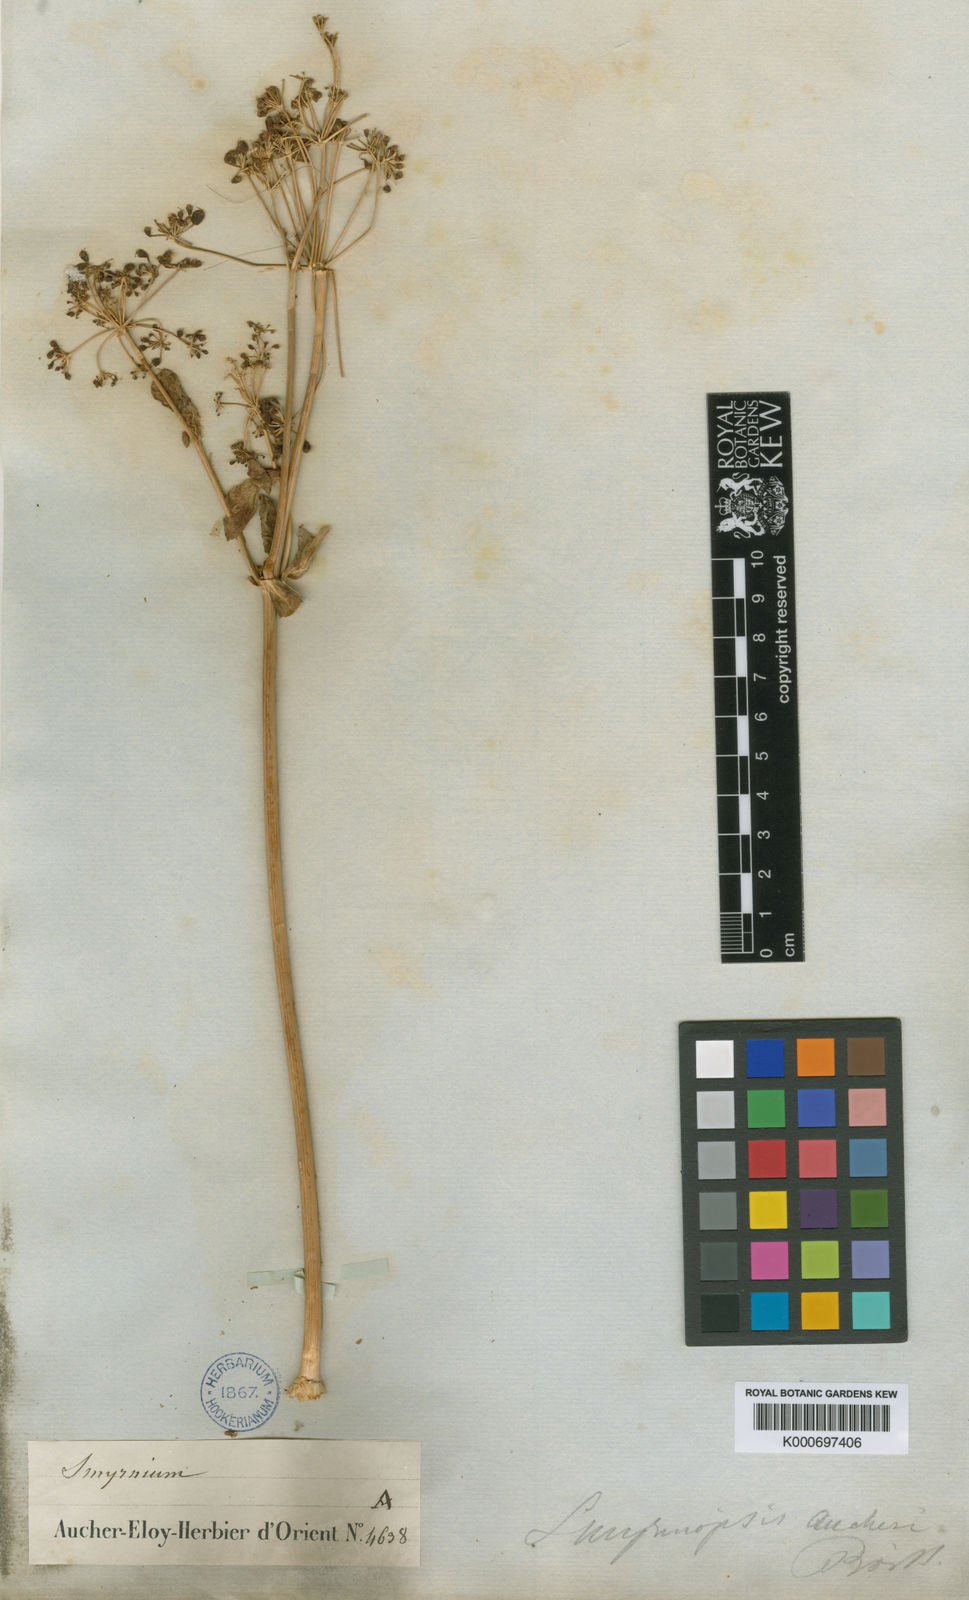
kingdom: Plantae
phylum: Tracheophyta
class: Magnoliopsida
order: Apiales
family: Apiaceae
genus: Smyrniopsis
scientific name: Smyrniopsis aucheri
